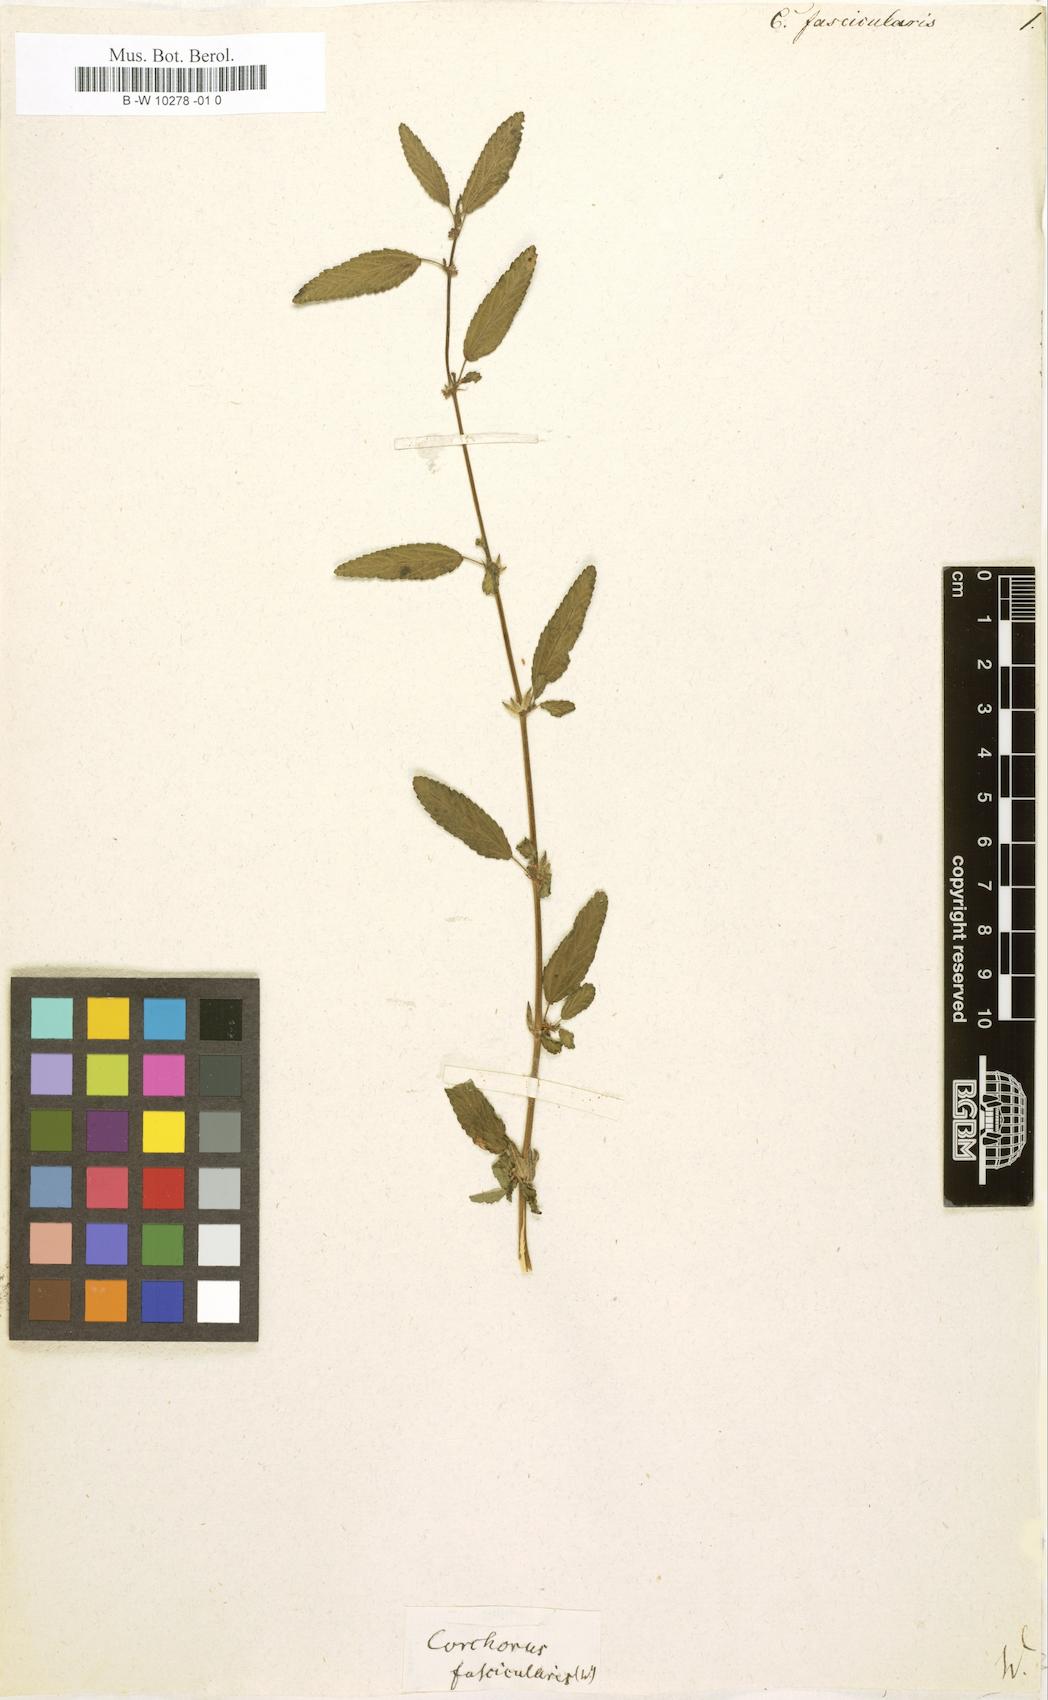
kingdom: Plantae
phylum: Tracheophyta
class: Magnoliopsida
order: Malvales
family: Malvaceae
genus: Corchorus
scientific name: Corchorus fascicularis
